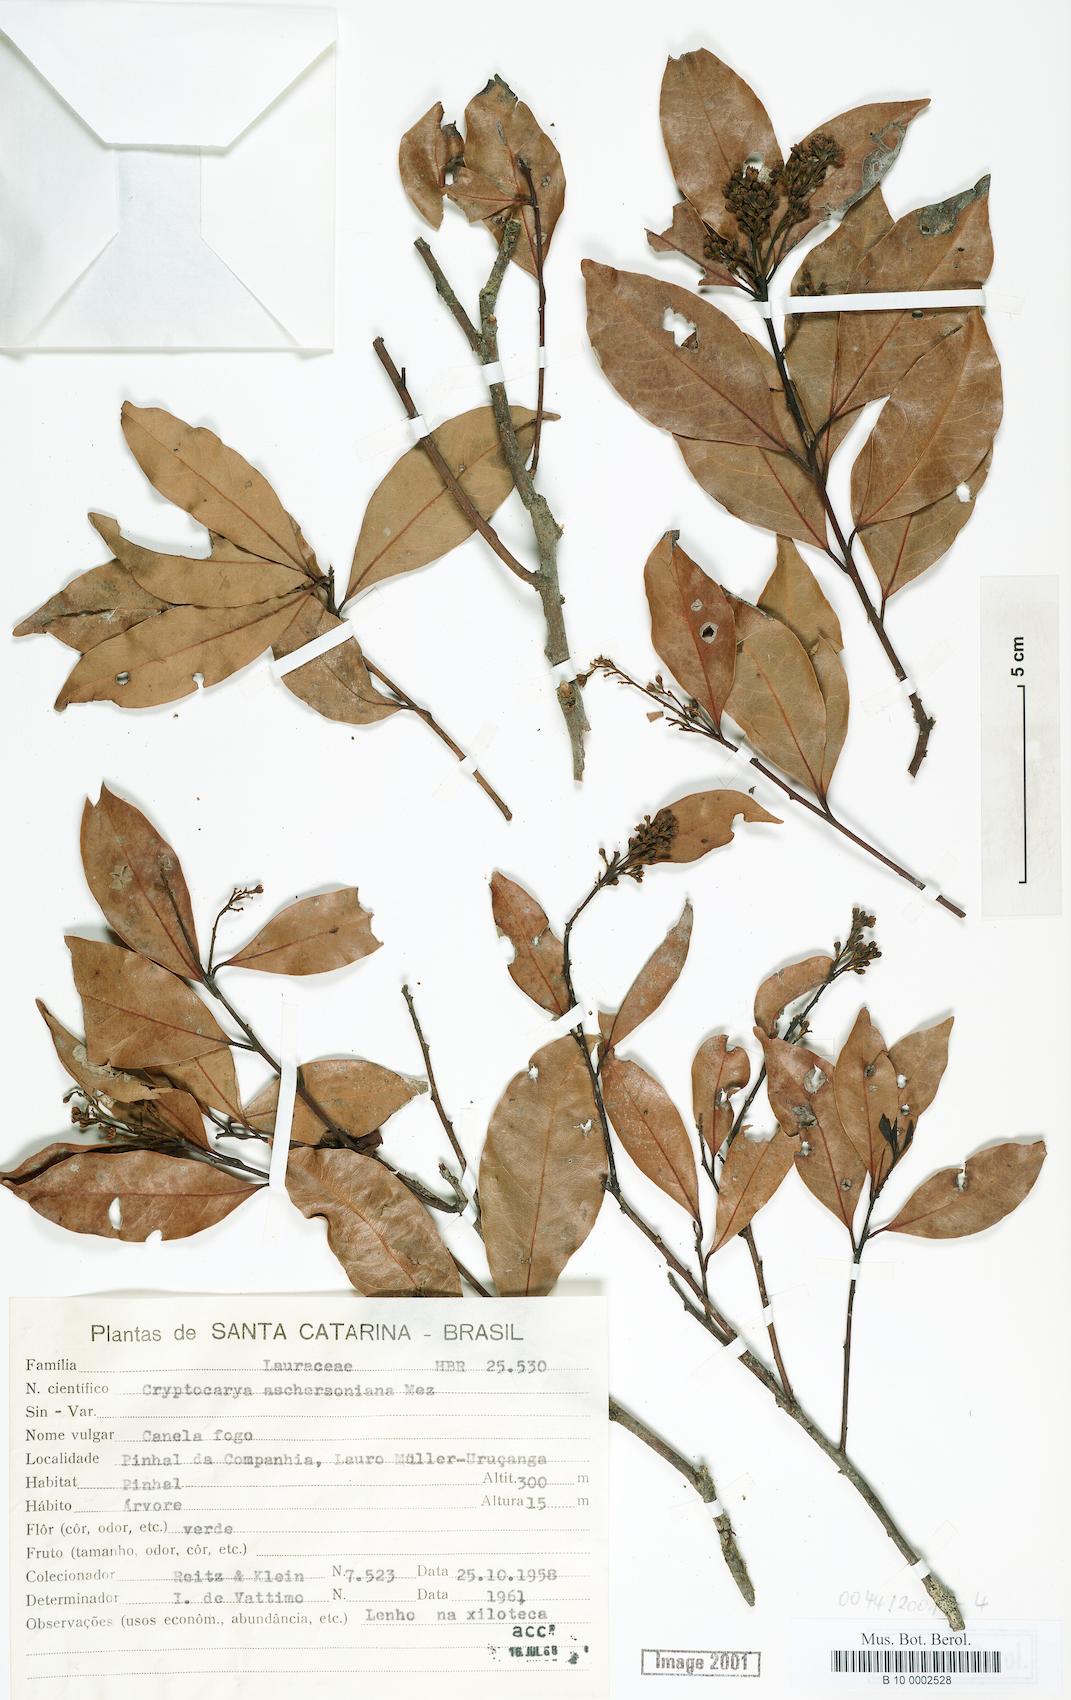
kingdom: Plantae
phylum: Tracheophyta
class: Magnoliopsida
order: Laurales
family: Lauraceae
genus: Cryptocarya
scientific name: Cryptocarya aschersoniana
